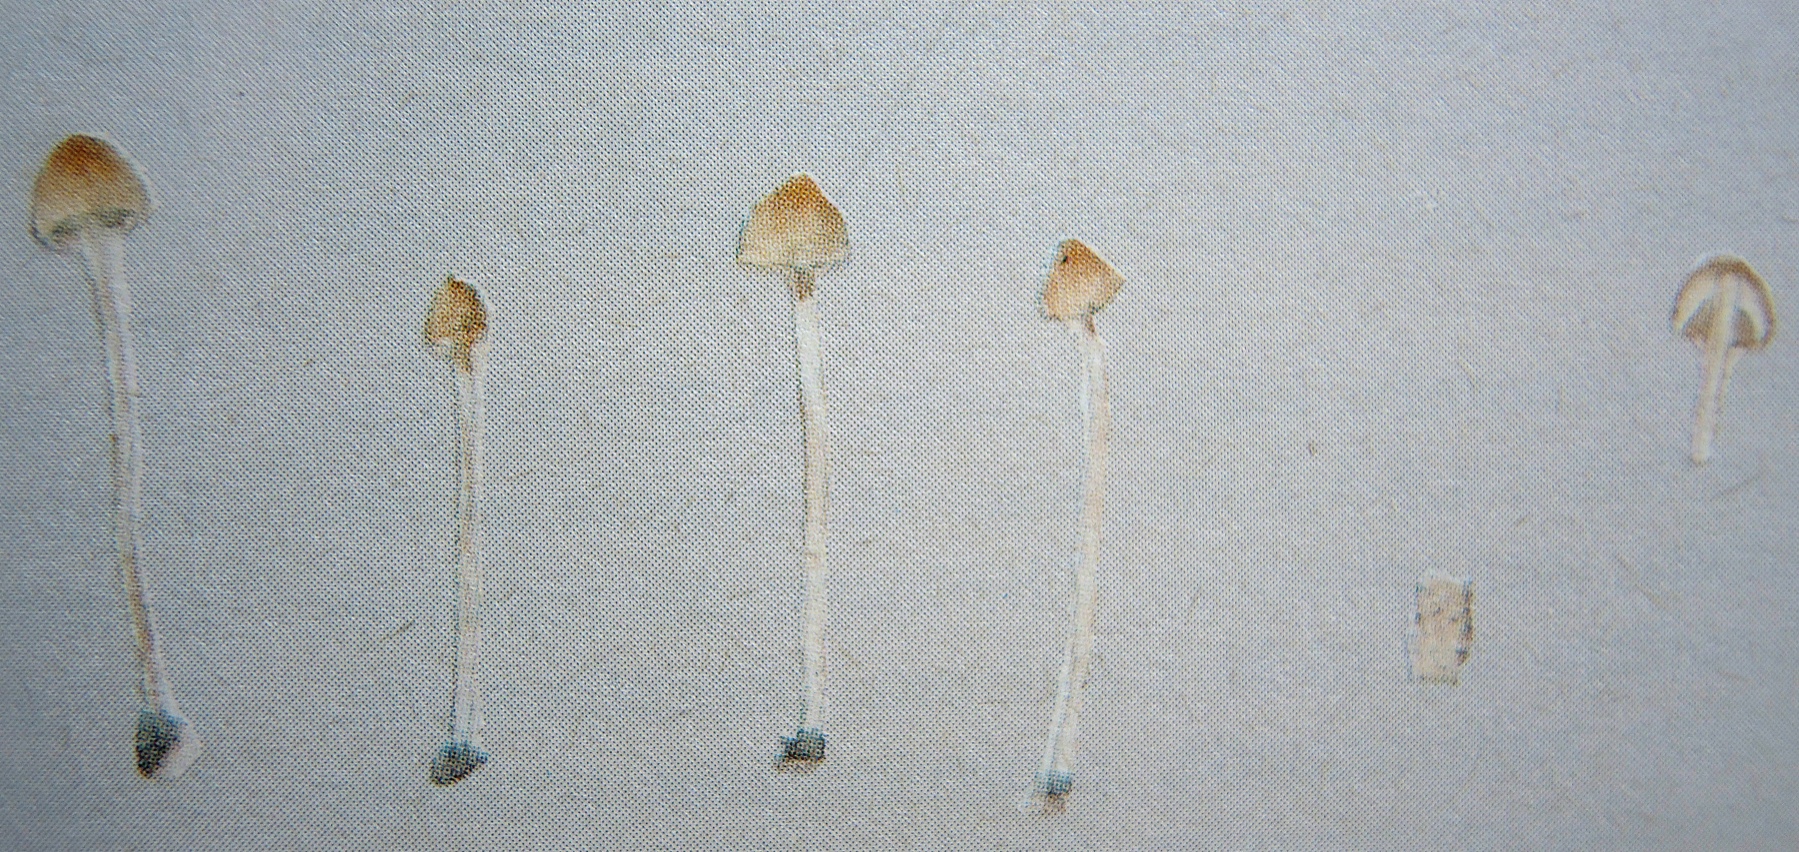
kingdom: Fungi
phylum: Basidiomycota
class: Agaricomycetes
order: Agaricales
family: Bolbitiaceae
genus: Conocybe
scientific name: Conocybe parvula
